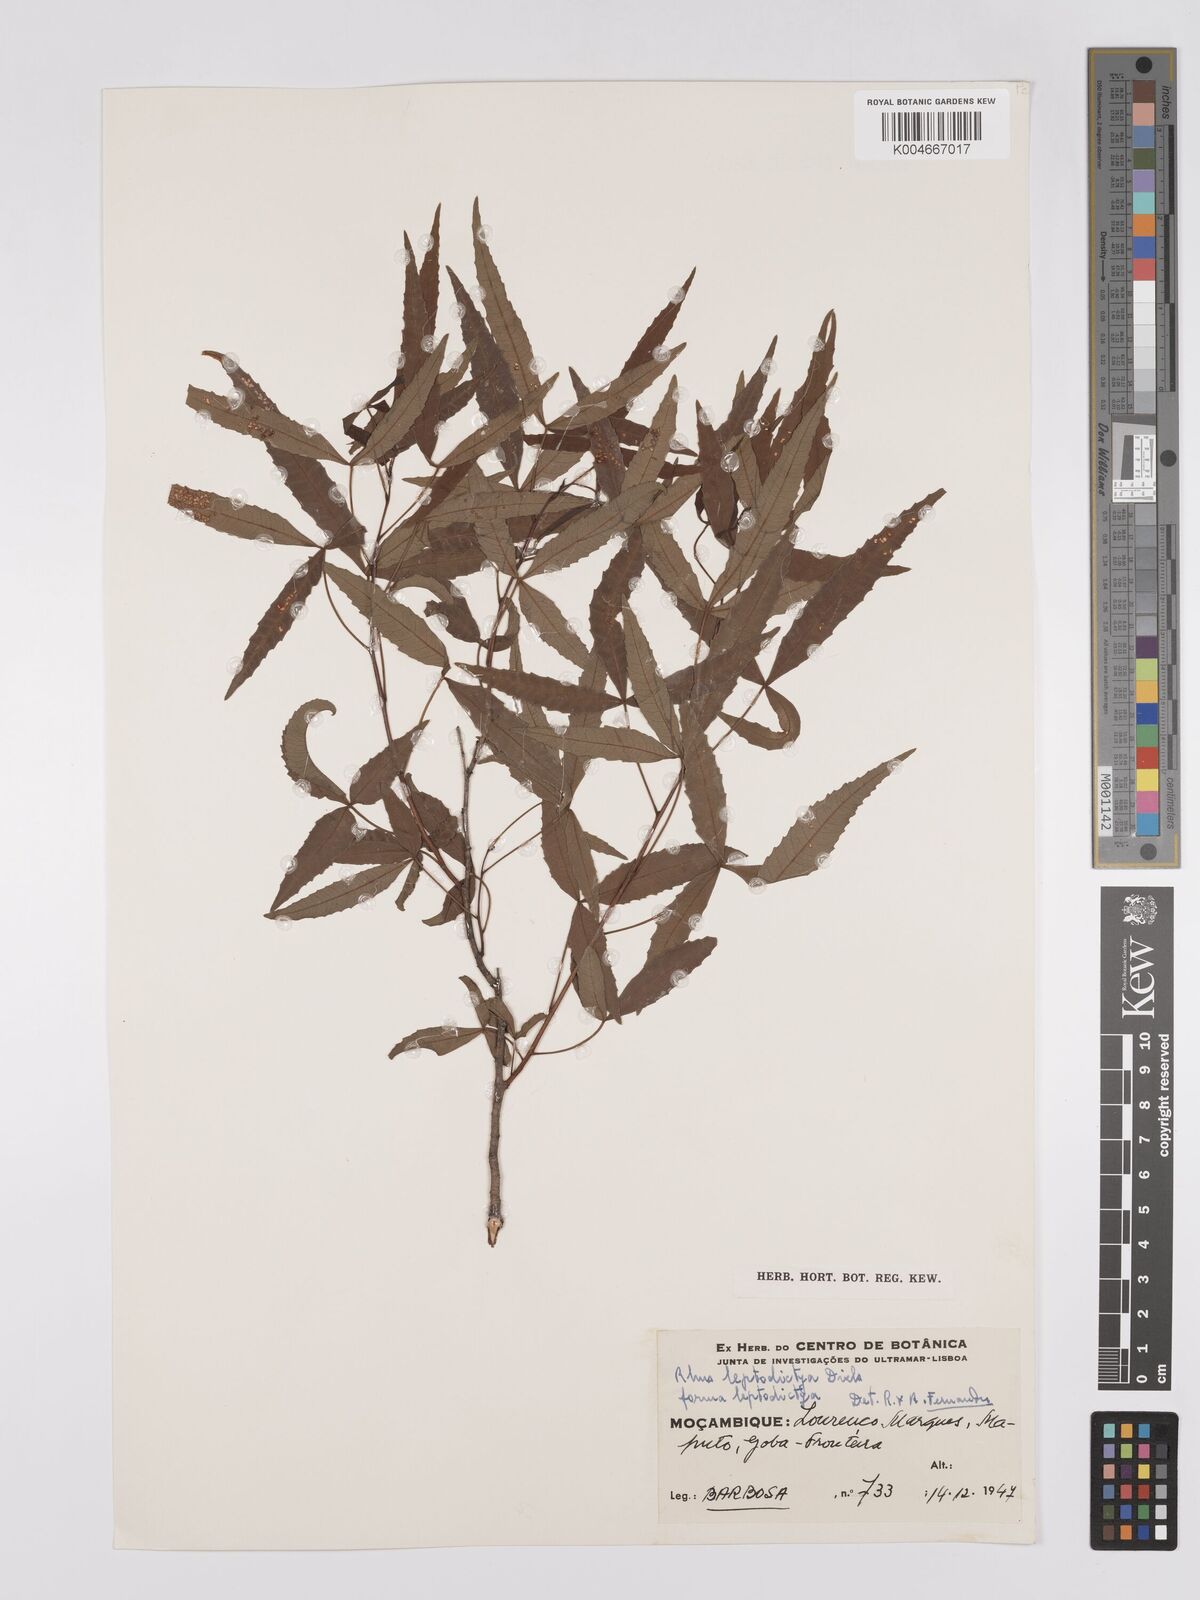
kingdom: Plantae
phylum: Tracheophyta
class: Magnoliopsida
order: Sapindales
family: Anacardiaceae
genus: Searsia
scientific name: Searsia leptodictya
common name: Mountain karee
